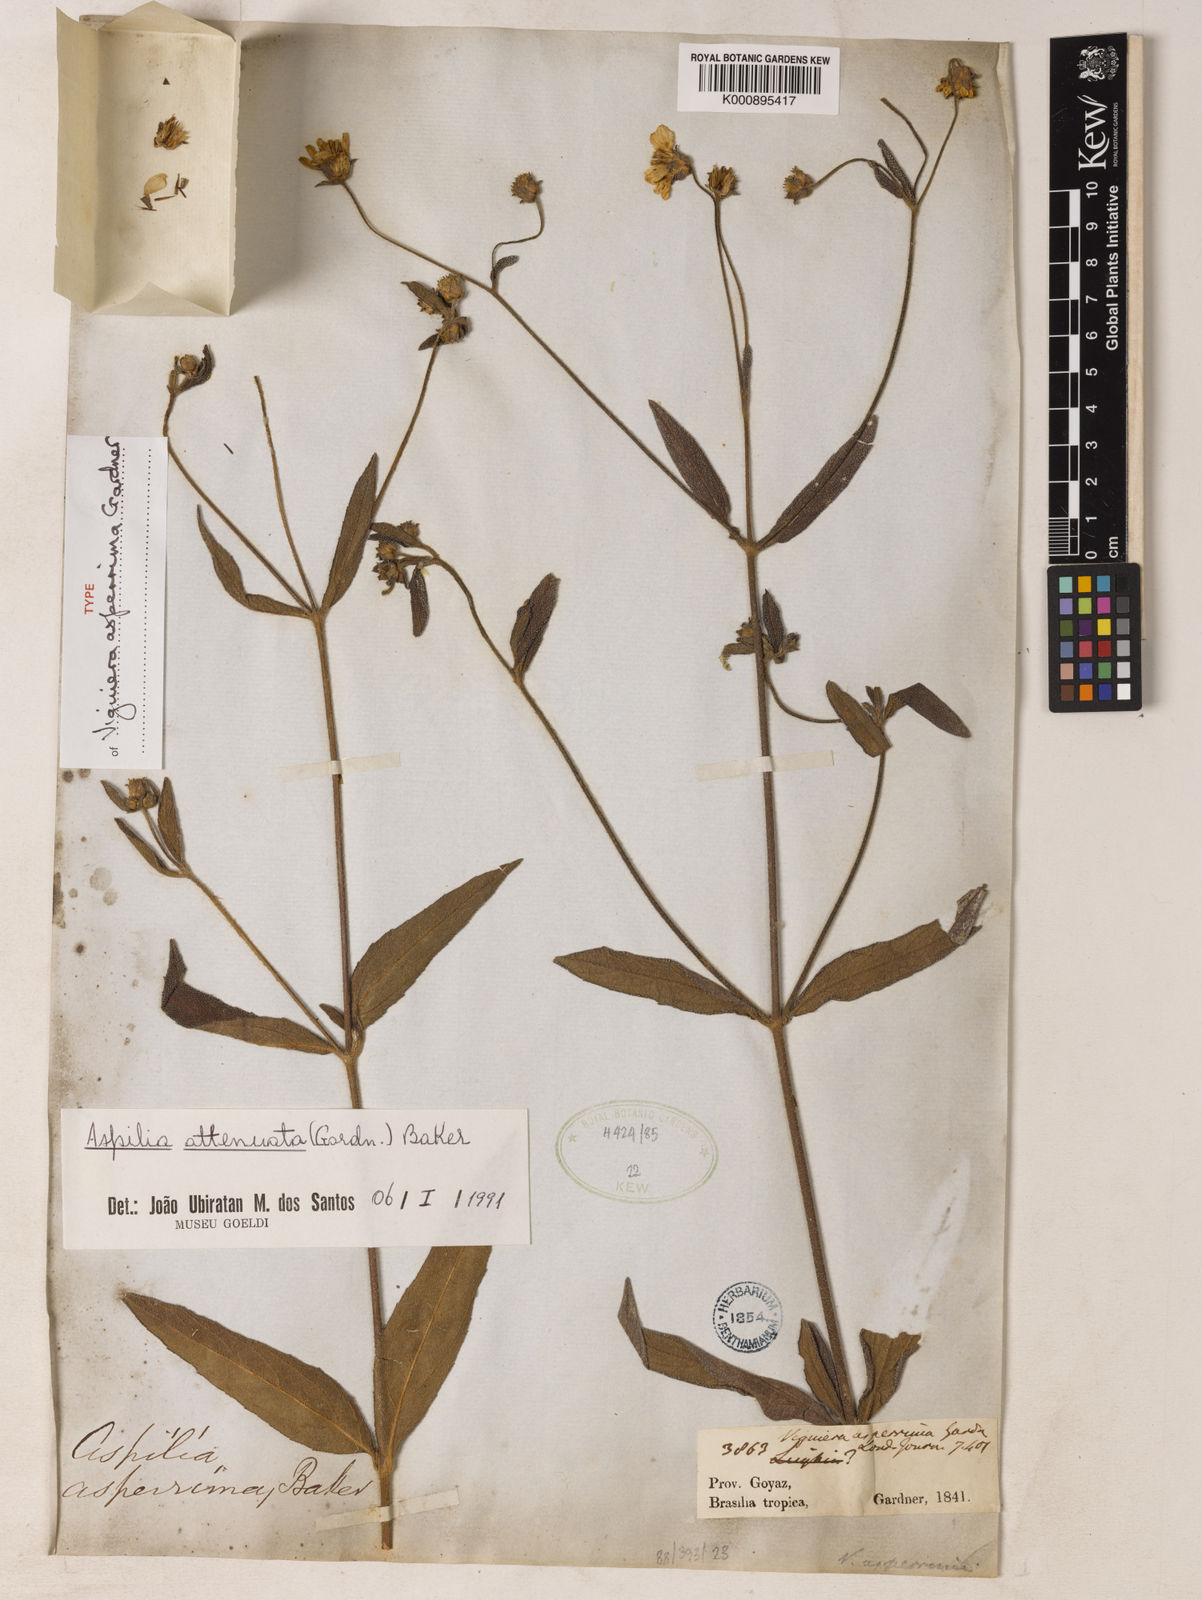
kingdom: Plantae
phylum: Tracheophyta
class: Magnoliopsida
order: Asterales
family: Asteraceae
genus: Wedelia
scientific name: Wedelia attenuata
